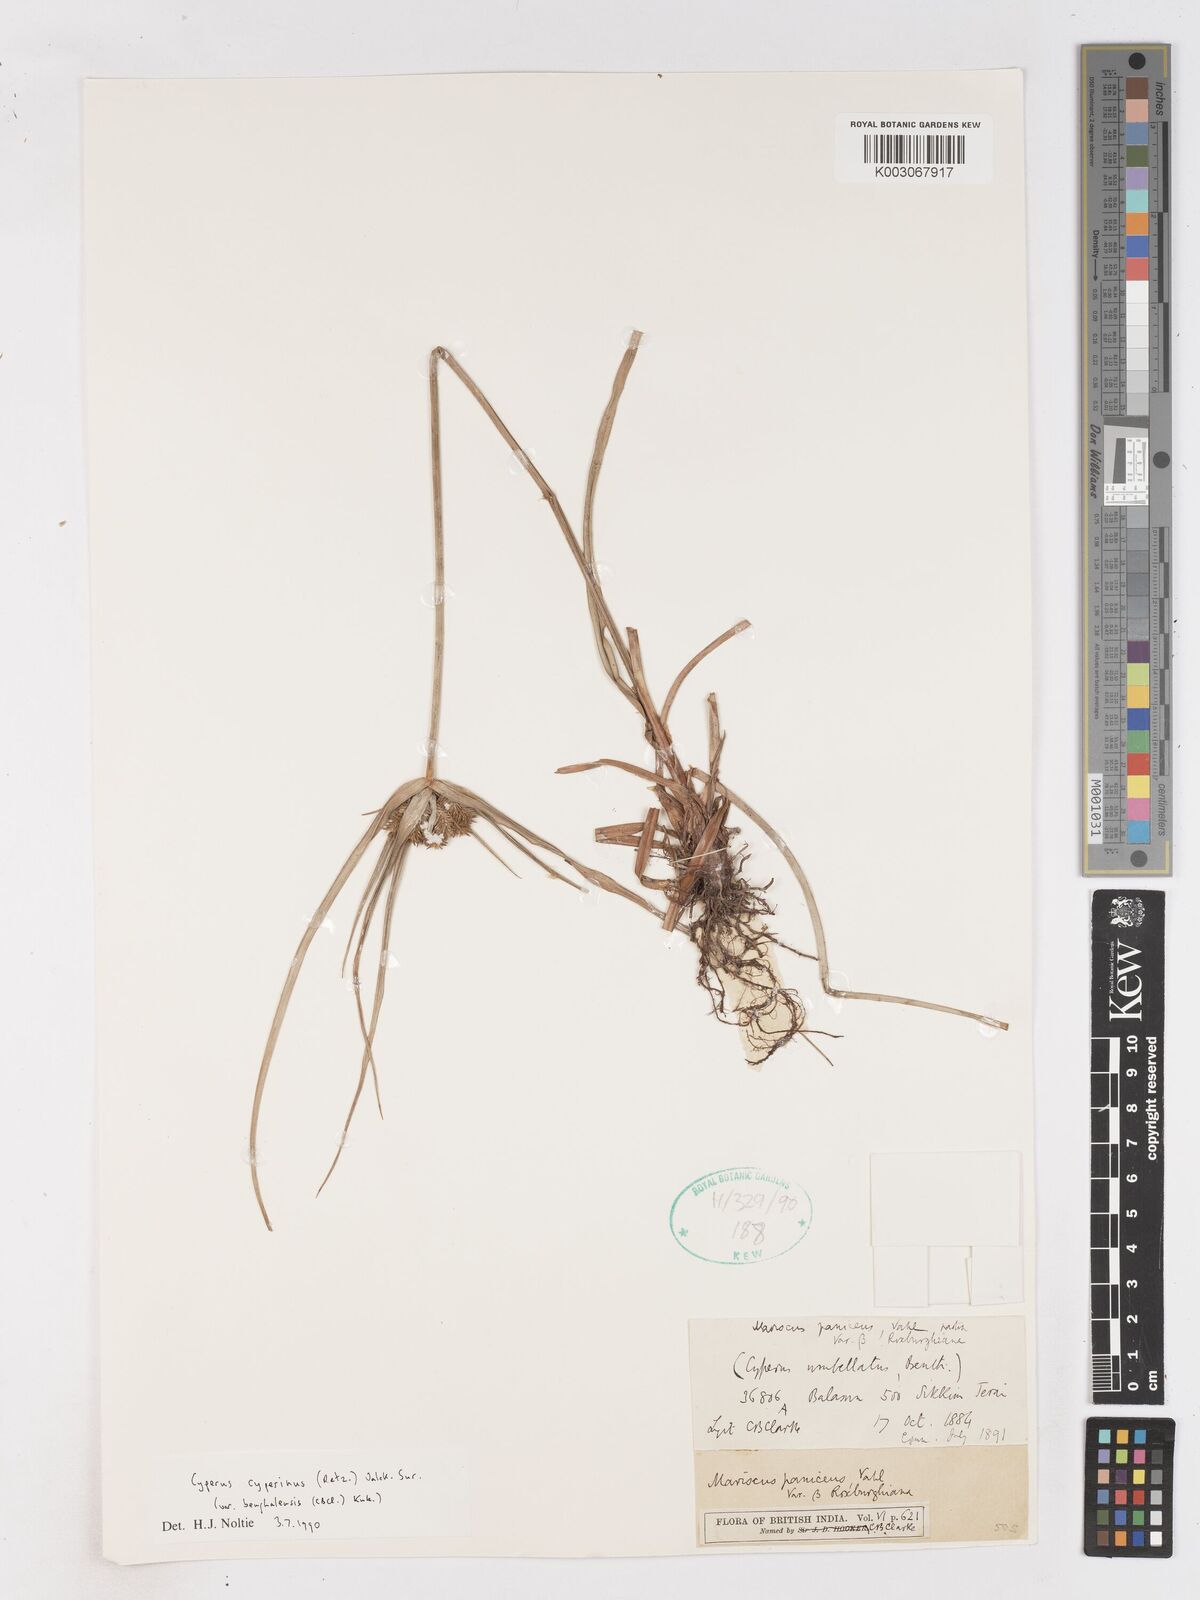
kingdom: Plantae
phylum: Tracheophyta
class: Liliopsida
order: Poales
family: Cyperaceae
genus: Cyperus
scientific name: Cyperus cyperinus
